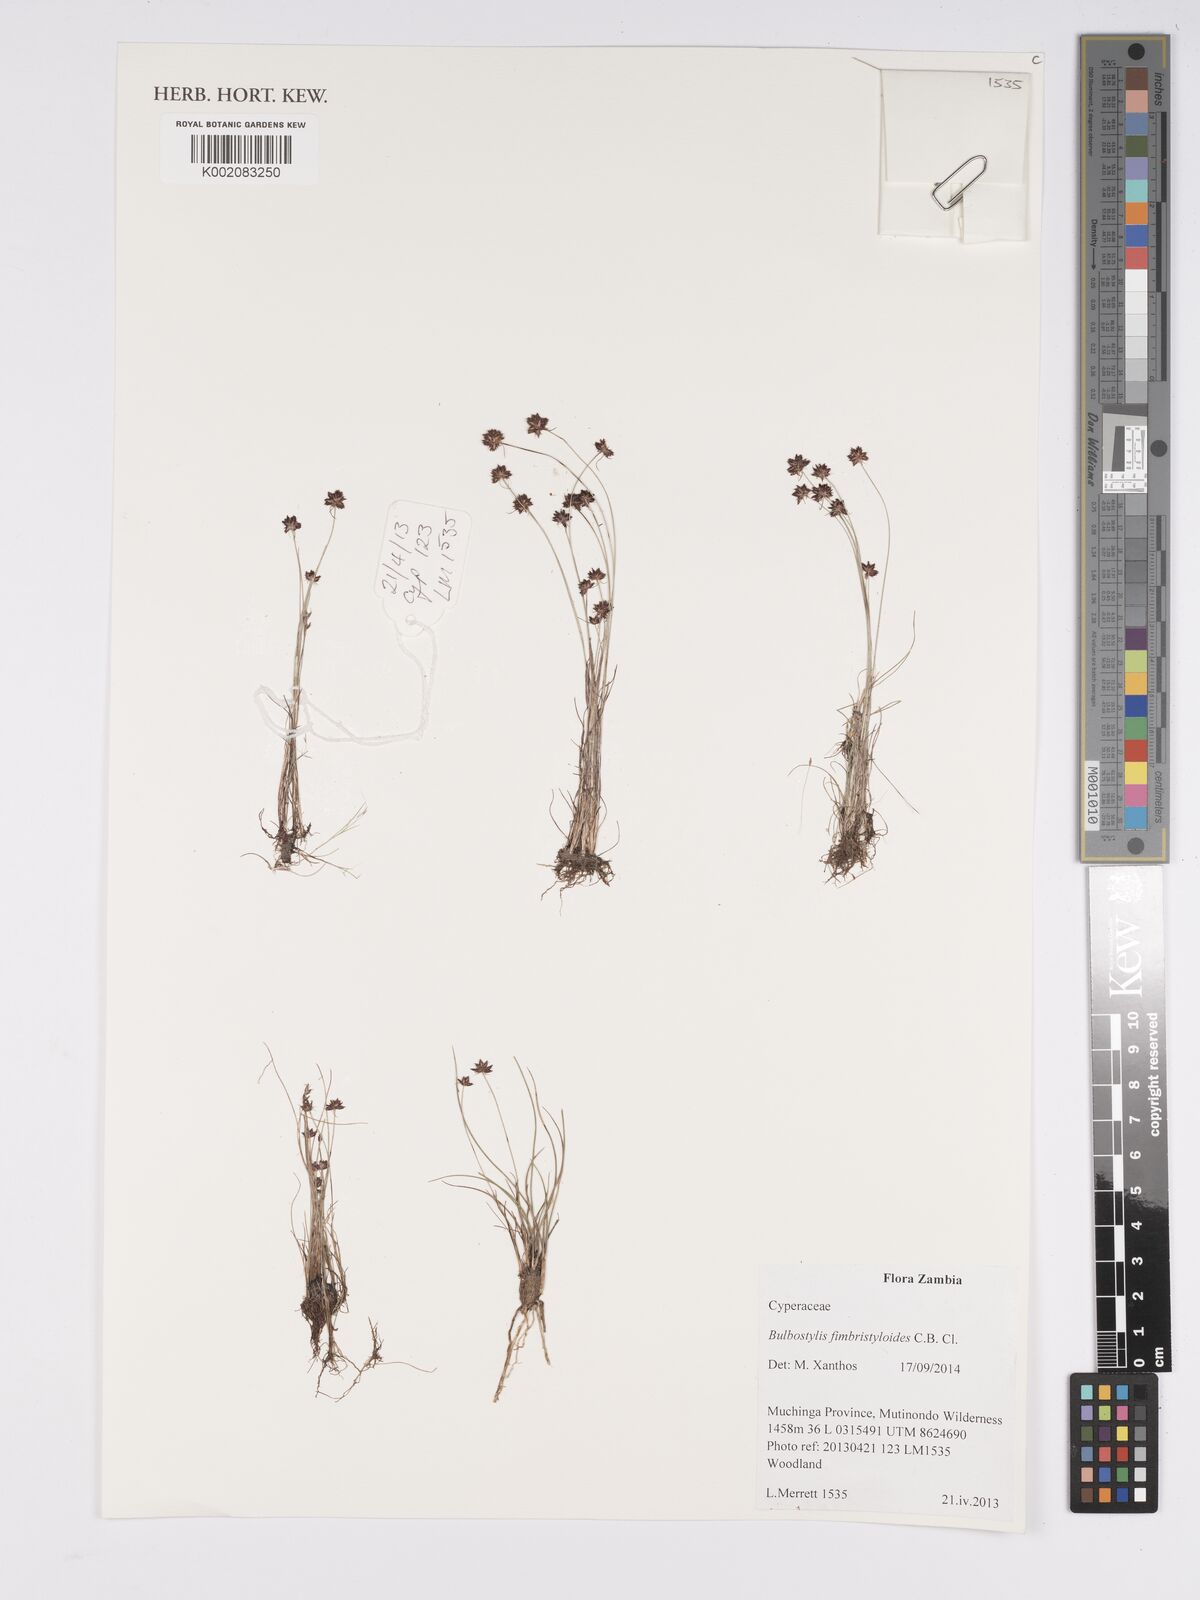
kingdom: Plantae
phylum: Tracheophyta
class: Liliopsida
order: Poales
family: Cyperaceae
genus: Bulbostylis
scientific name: Bulbostylis fimbristyloides
